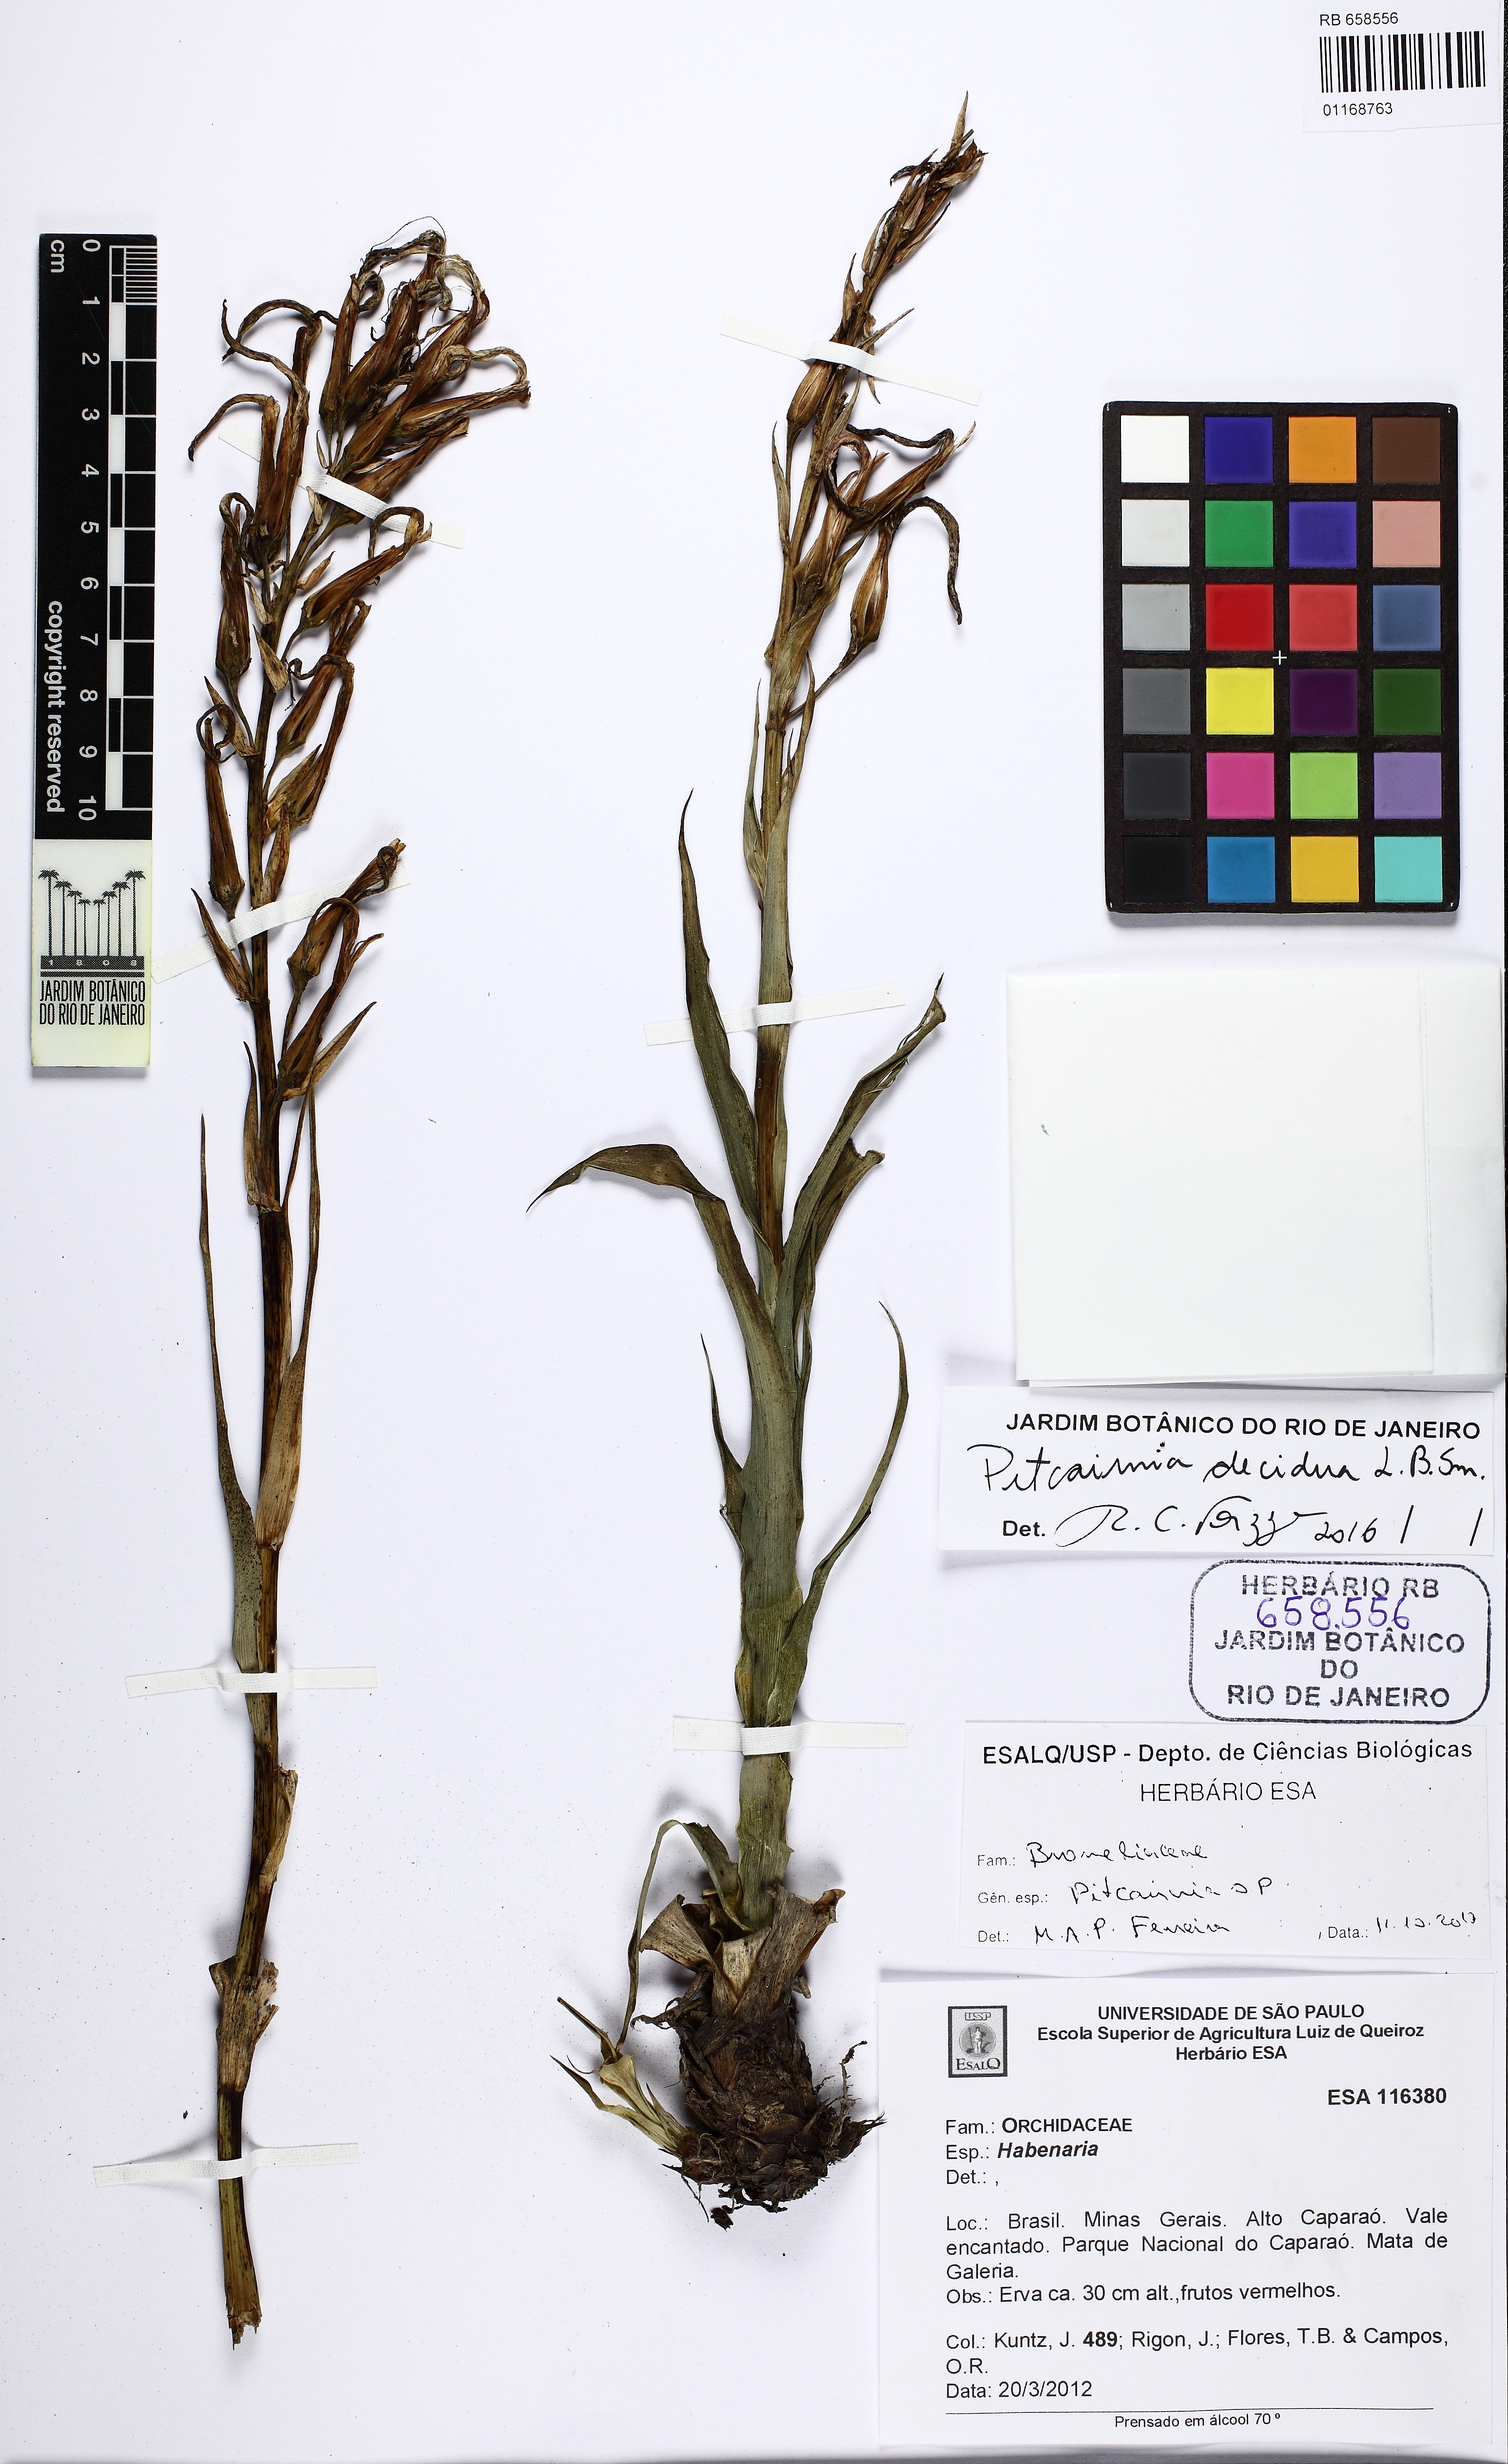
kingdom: Plantae
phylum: Tracheophyta
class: Liliopsida
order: Poales
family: Bromeliaceae
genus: Pitcairnia
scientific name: Pitcairnia decidua
